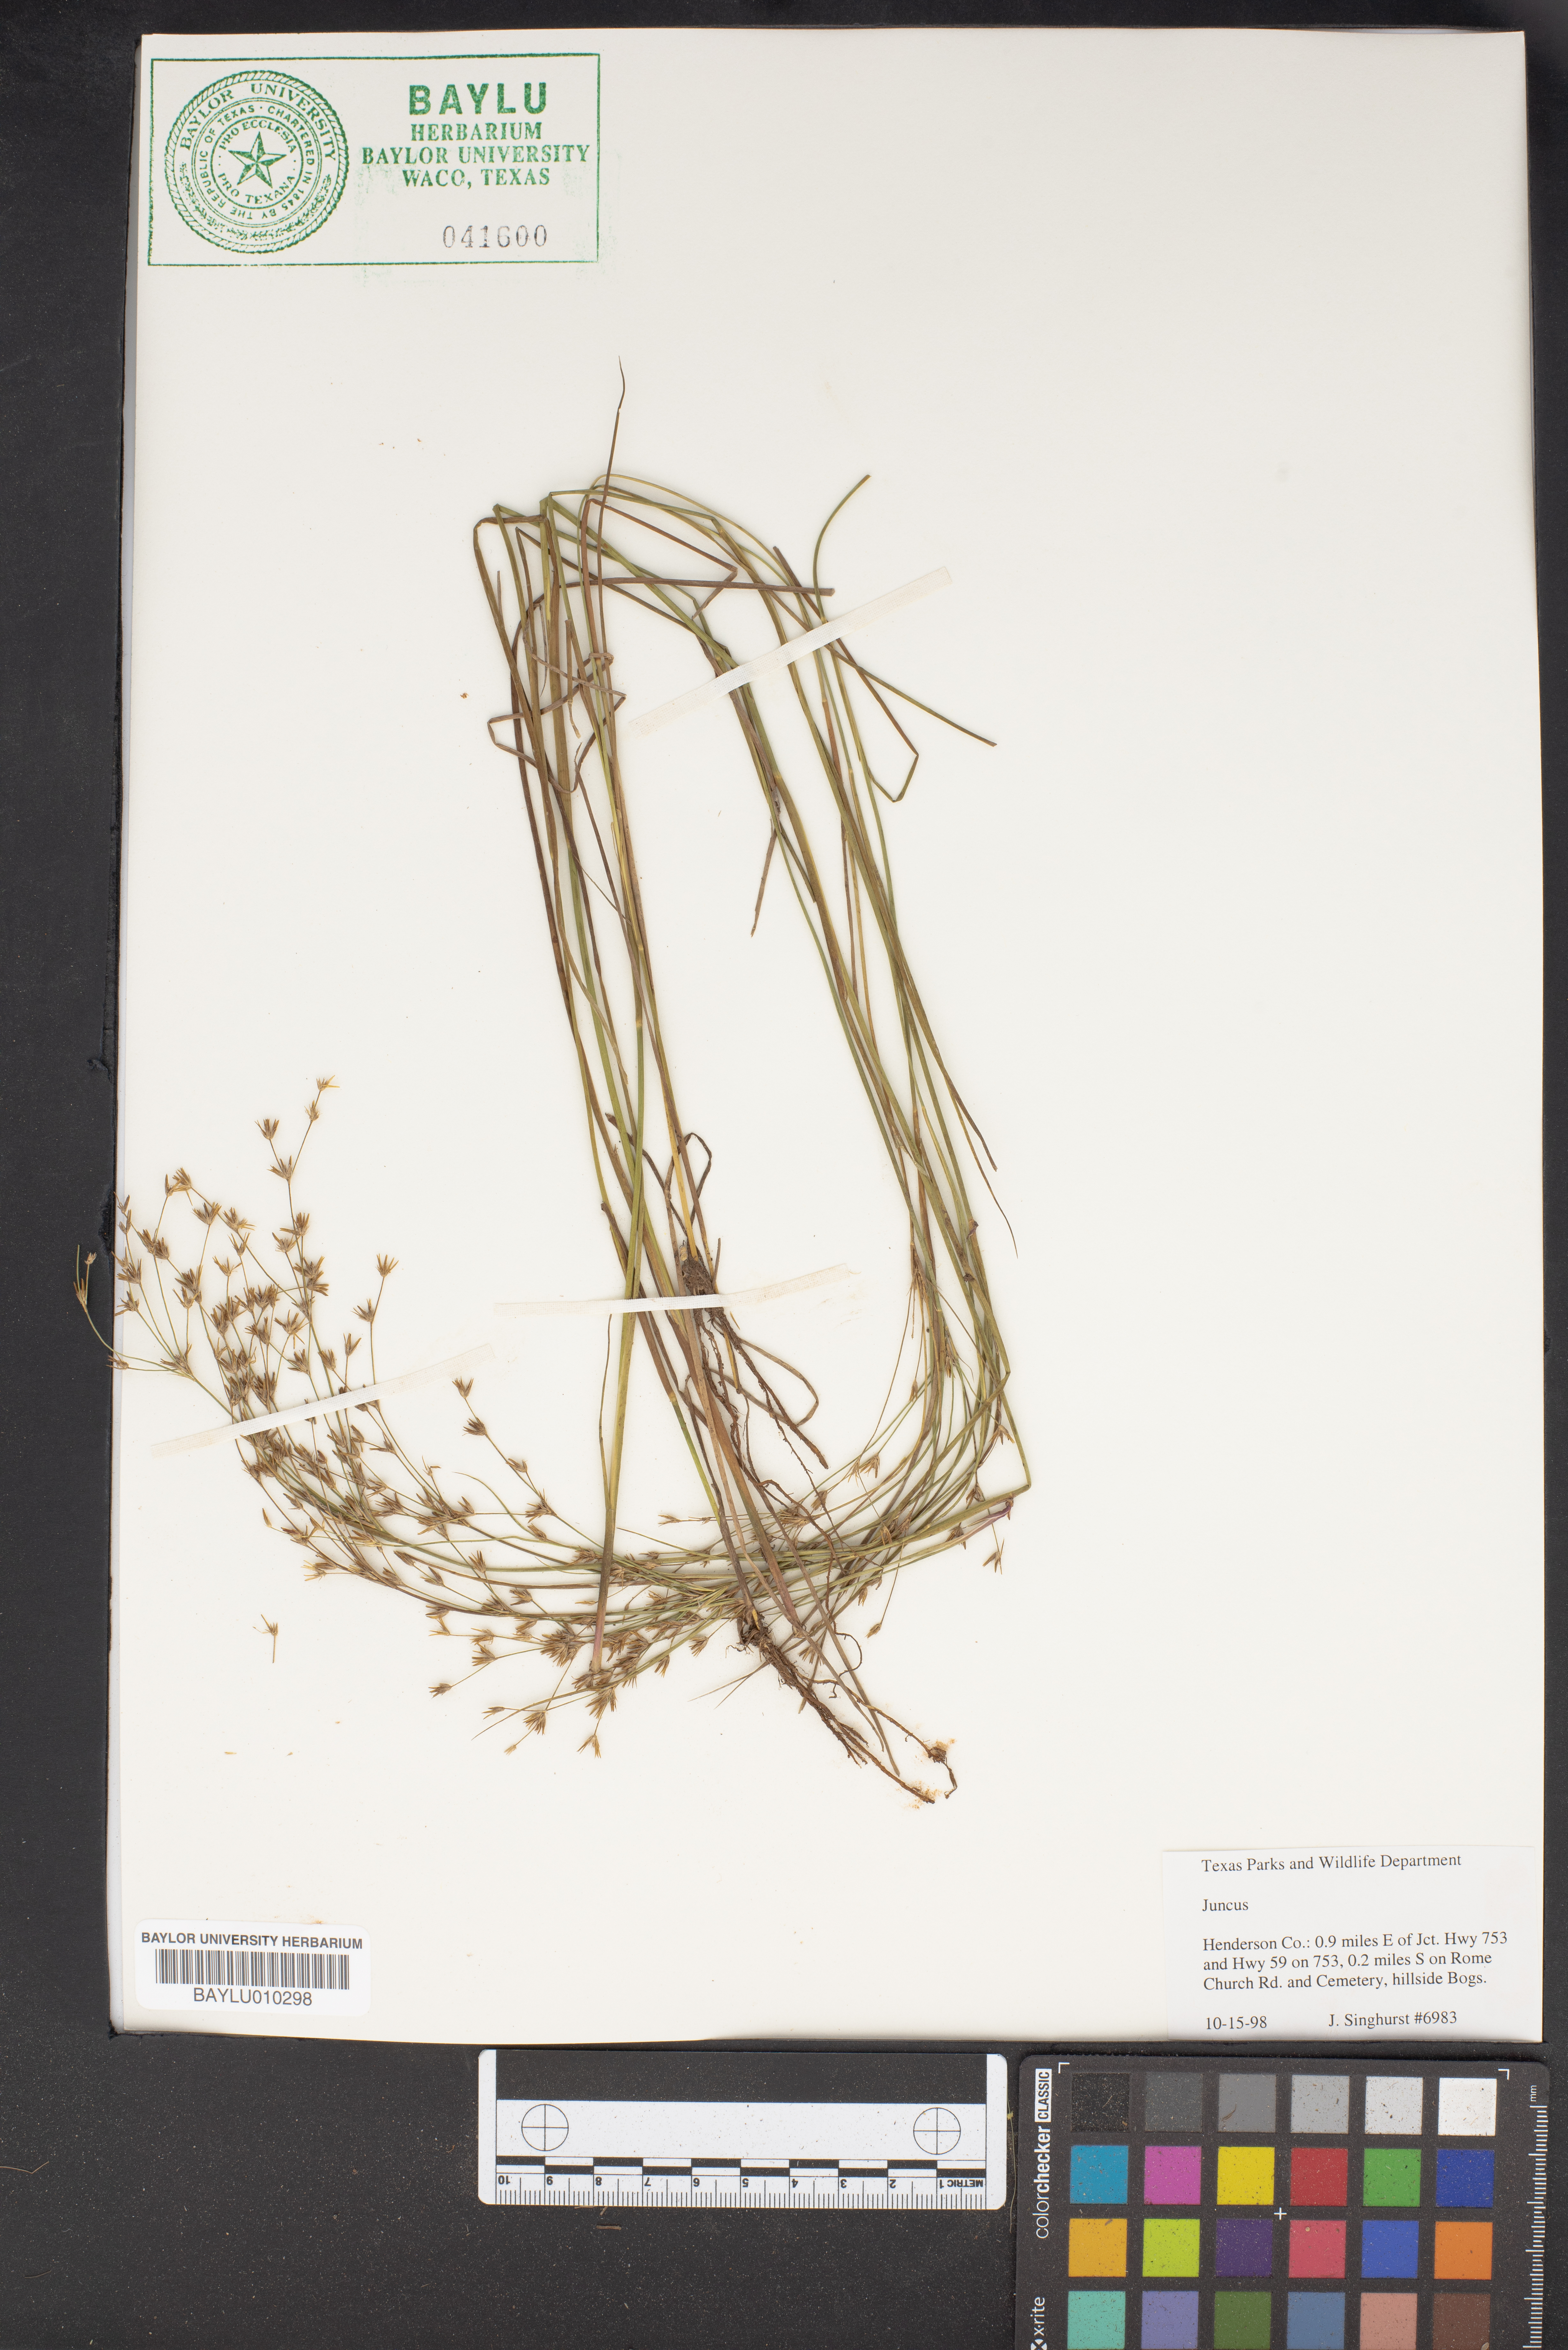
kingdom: Plantae
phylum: Tracheophyta
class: Liliopsida
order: Poales
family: Juncaceae
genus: Juncus
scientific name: Juncus
